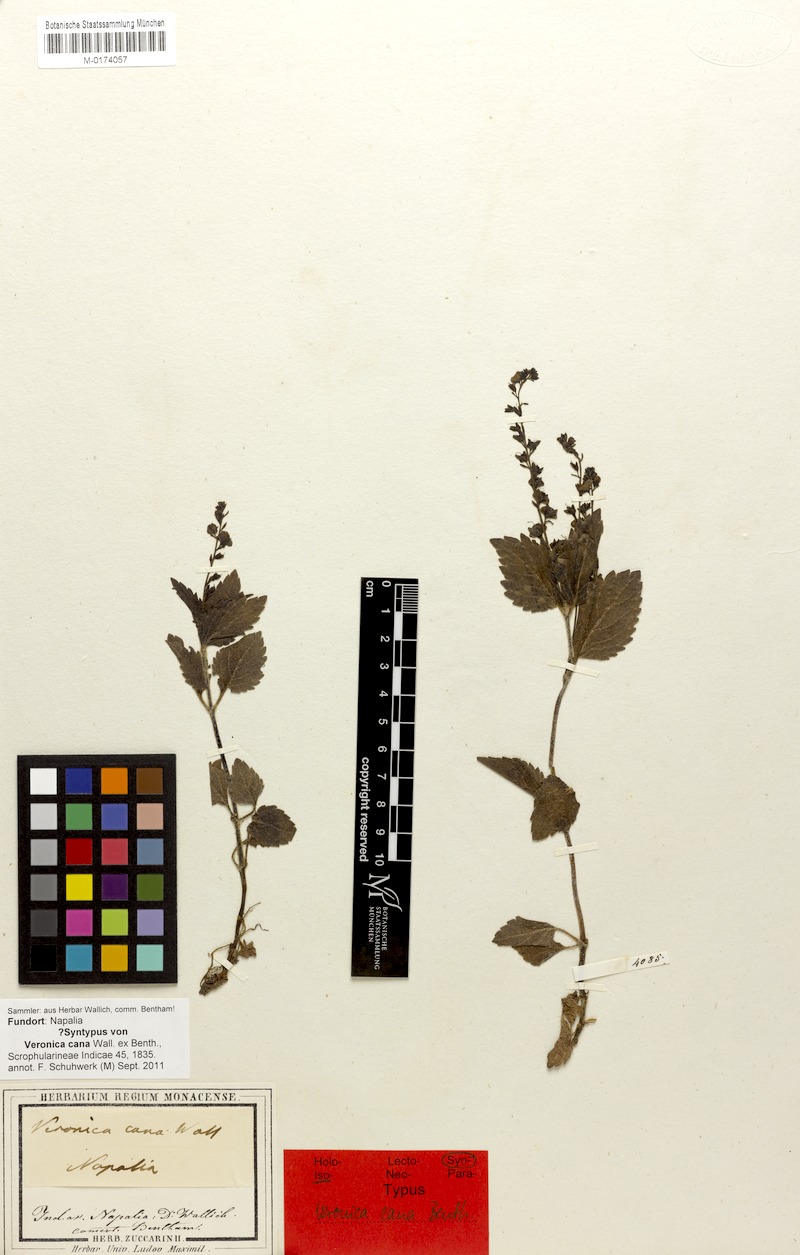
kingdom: Plantae
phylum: Tracheophyta
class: Magnoliopsida
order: Lamiales
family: Plantaginaceae
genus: Veronica
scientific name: Veronica cana
